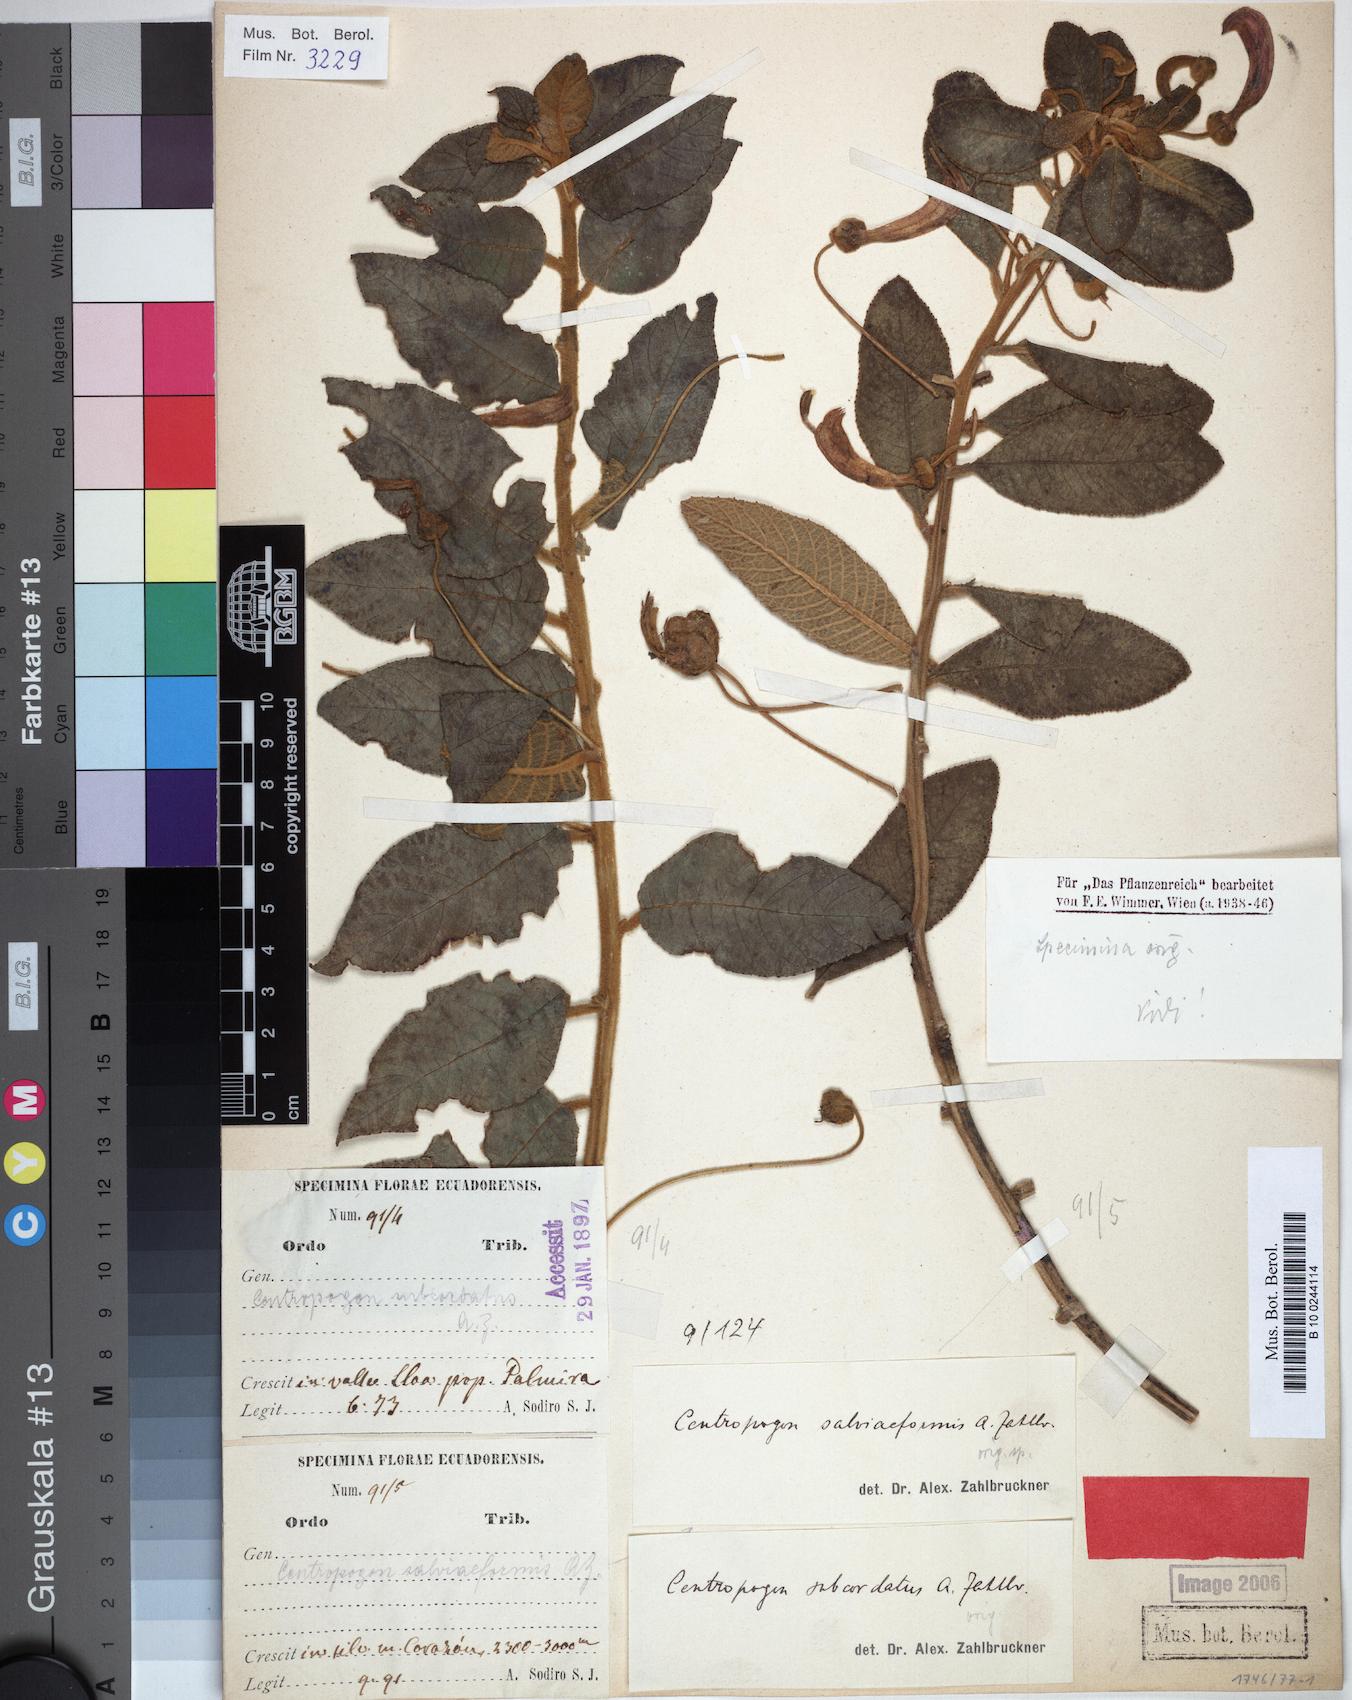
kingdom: Plantae
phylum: Tracheophyta
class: Magnoliopsida
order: Asterales
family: Campanulaceae
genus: Centropogon
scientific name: Centropogon salviiformis
